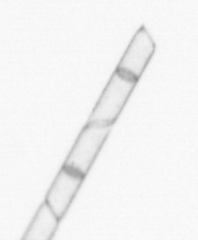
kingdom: Chromista
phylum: Ochrophyta
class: Bacillariophyceae
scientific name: Bacillariophyceae
